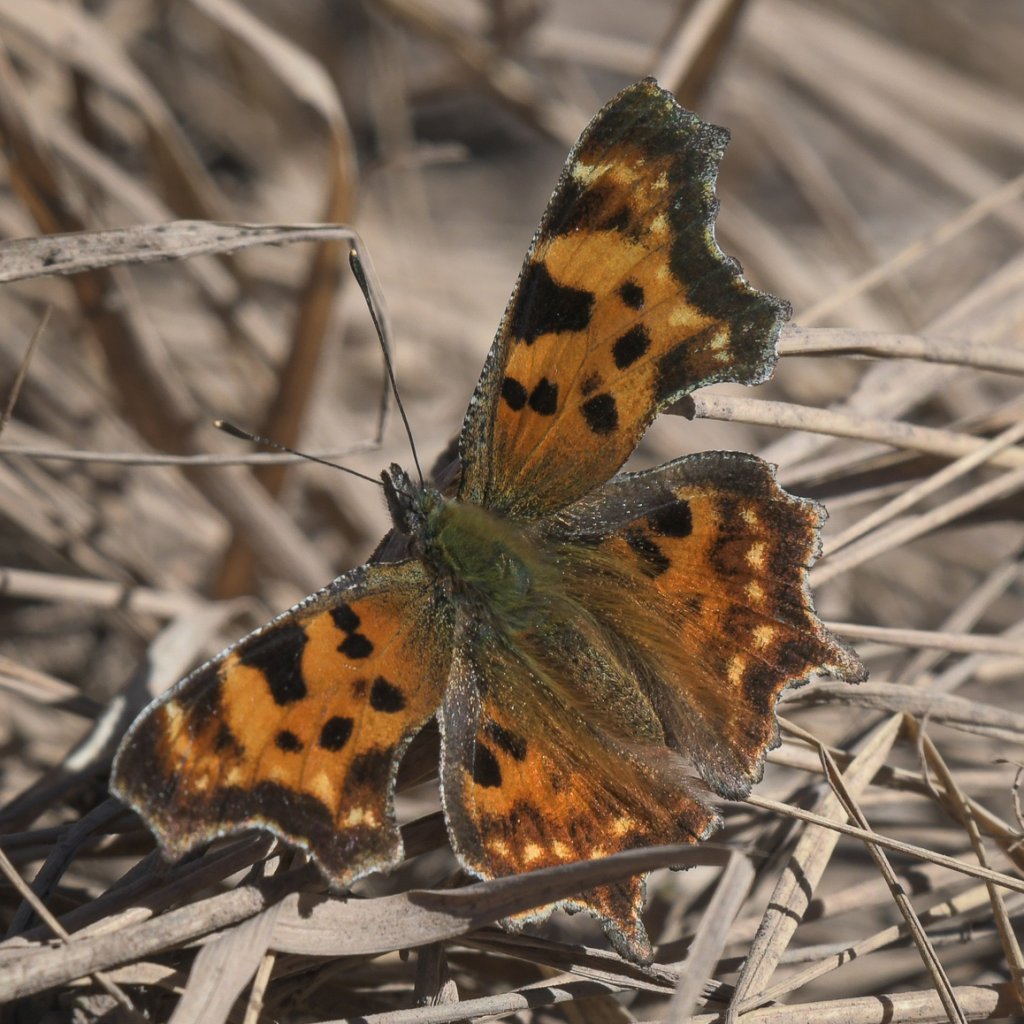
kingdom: Animalia
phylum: Arthropoda
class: Insecta
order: Lepidoptera
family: Nymphalidae
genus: Polygonia
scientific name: Polygonia faunus
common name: Green Comma
